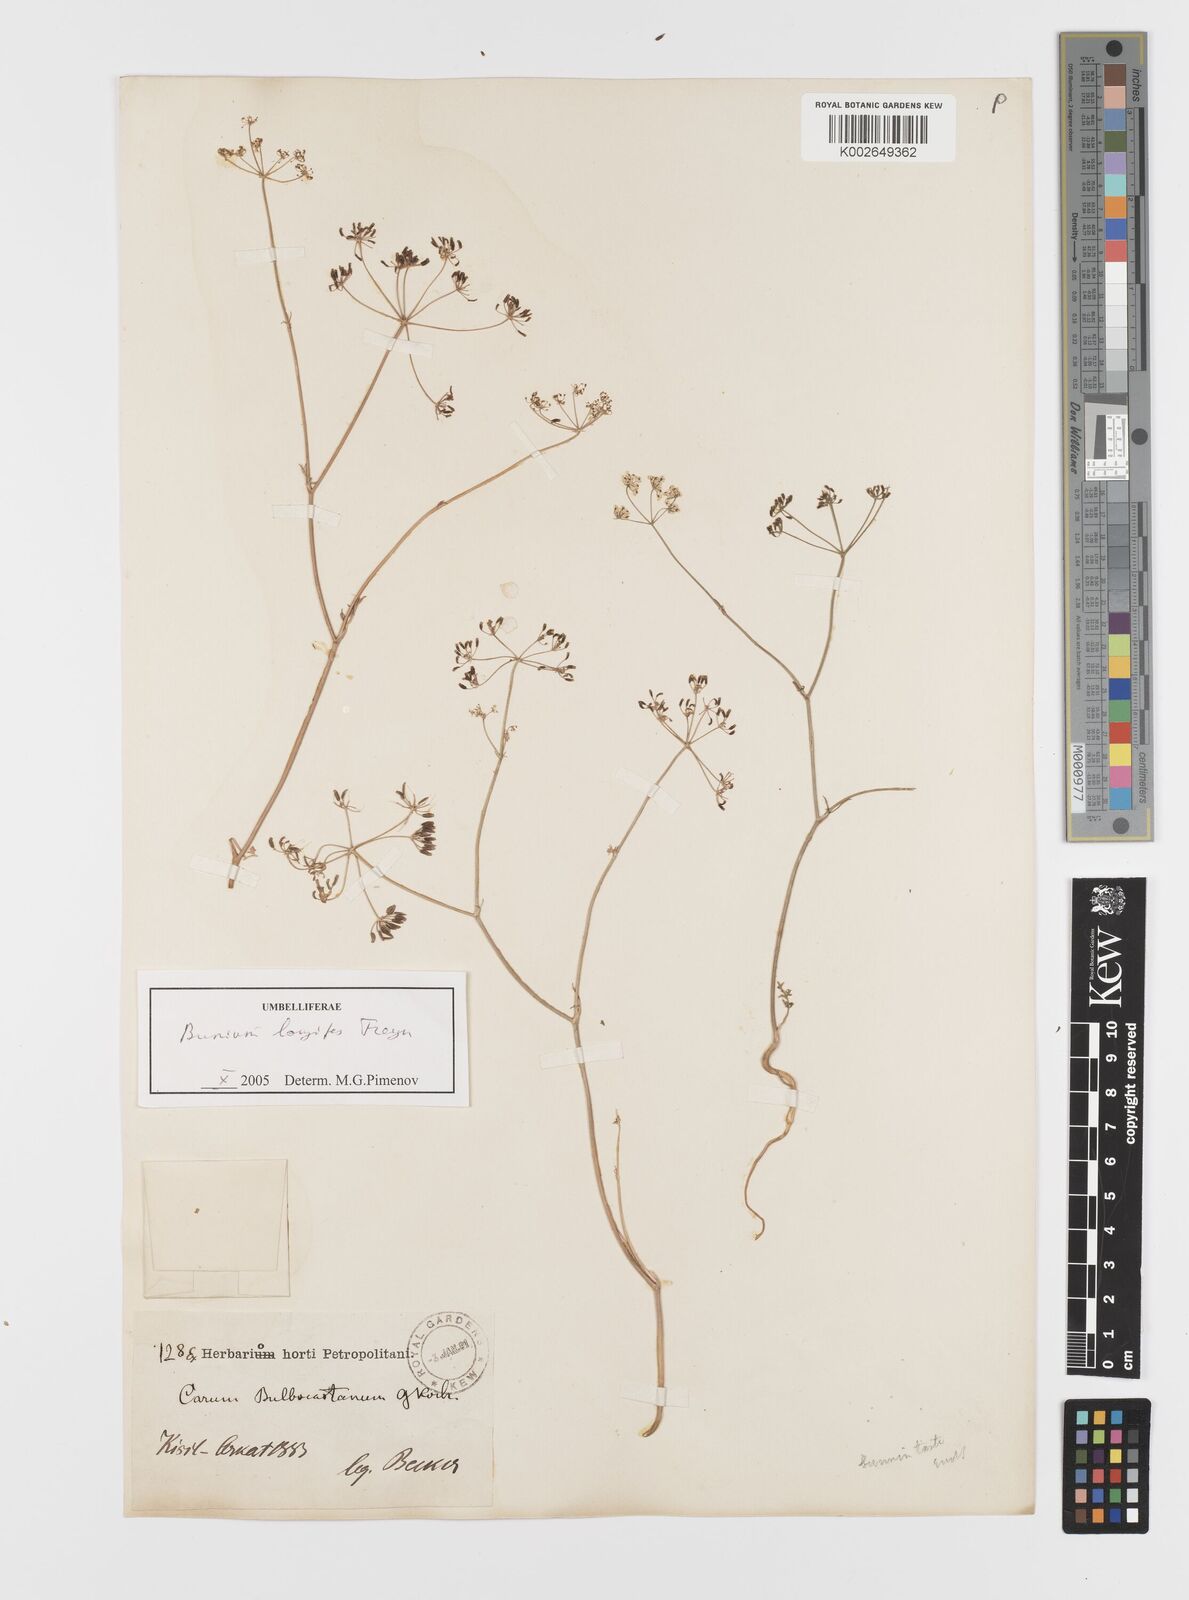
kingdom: Plantae
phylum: Tracheophyta
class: Magnoliopsida
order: Apiales
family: Apiaceae
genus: Bunium
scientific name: Bunium bulbocastanum
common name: Great pignut
